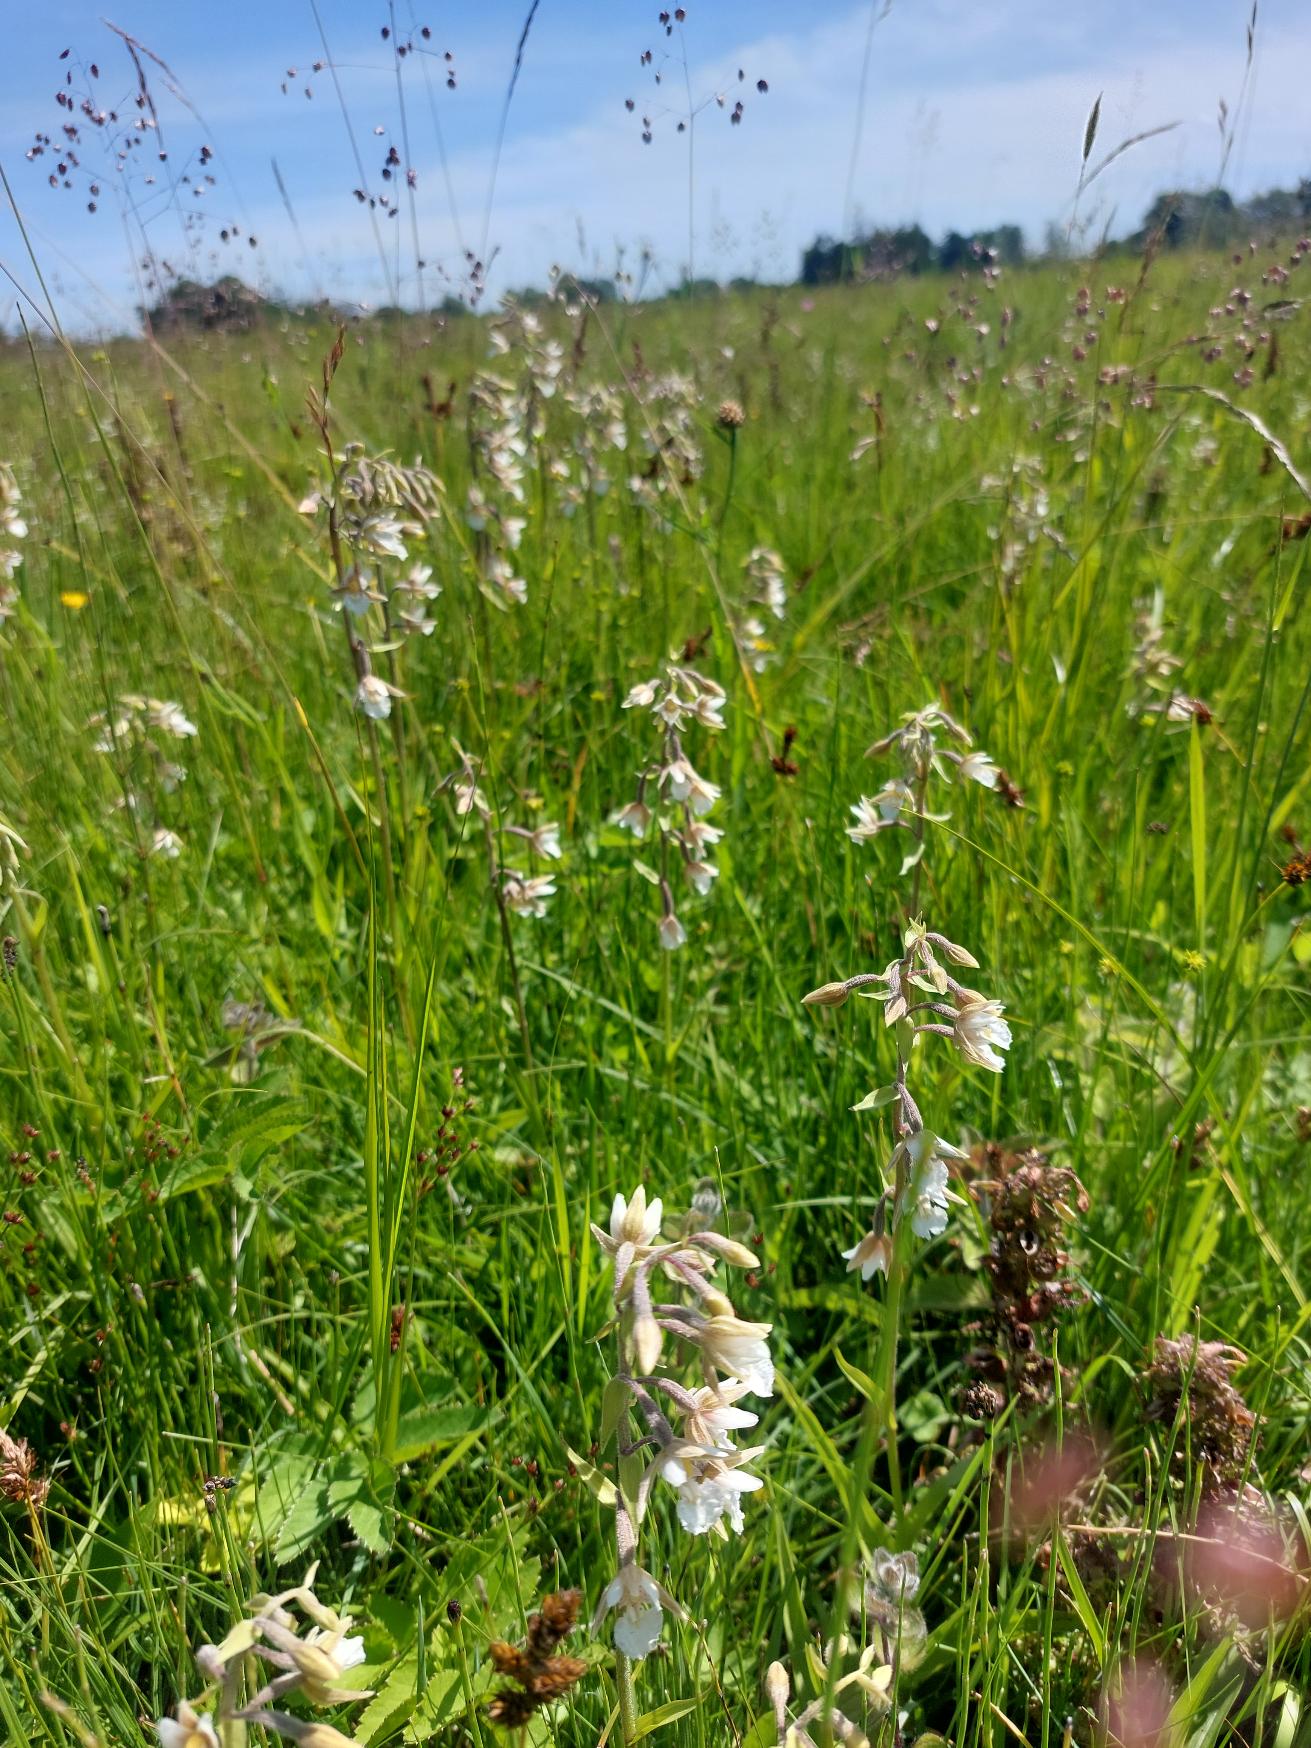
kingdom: Plantae
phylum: Tracheophyta
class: Liliopsida
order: Asparagales
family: Orchidaceae
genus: Epipactis
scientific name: Epipactis palustris
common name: Sump-hullæbe
